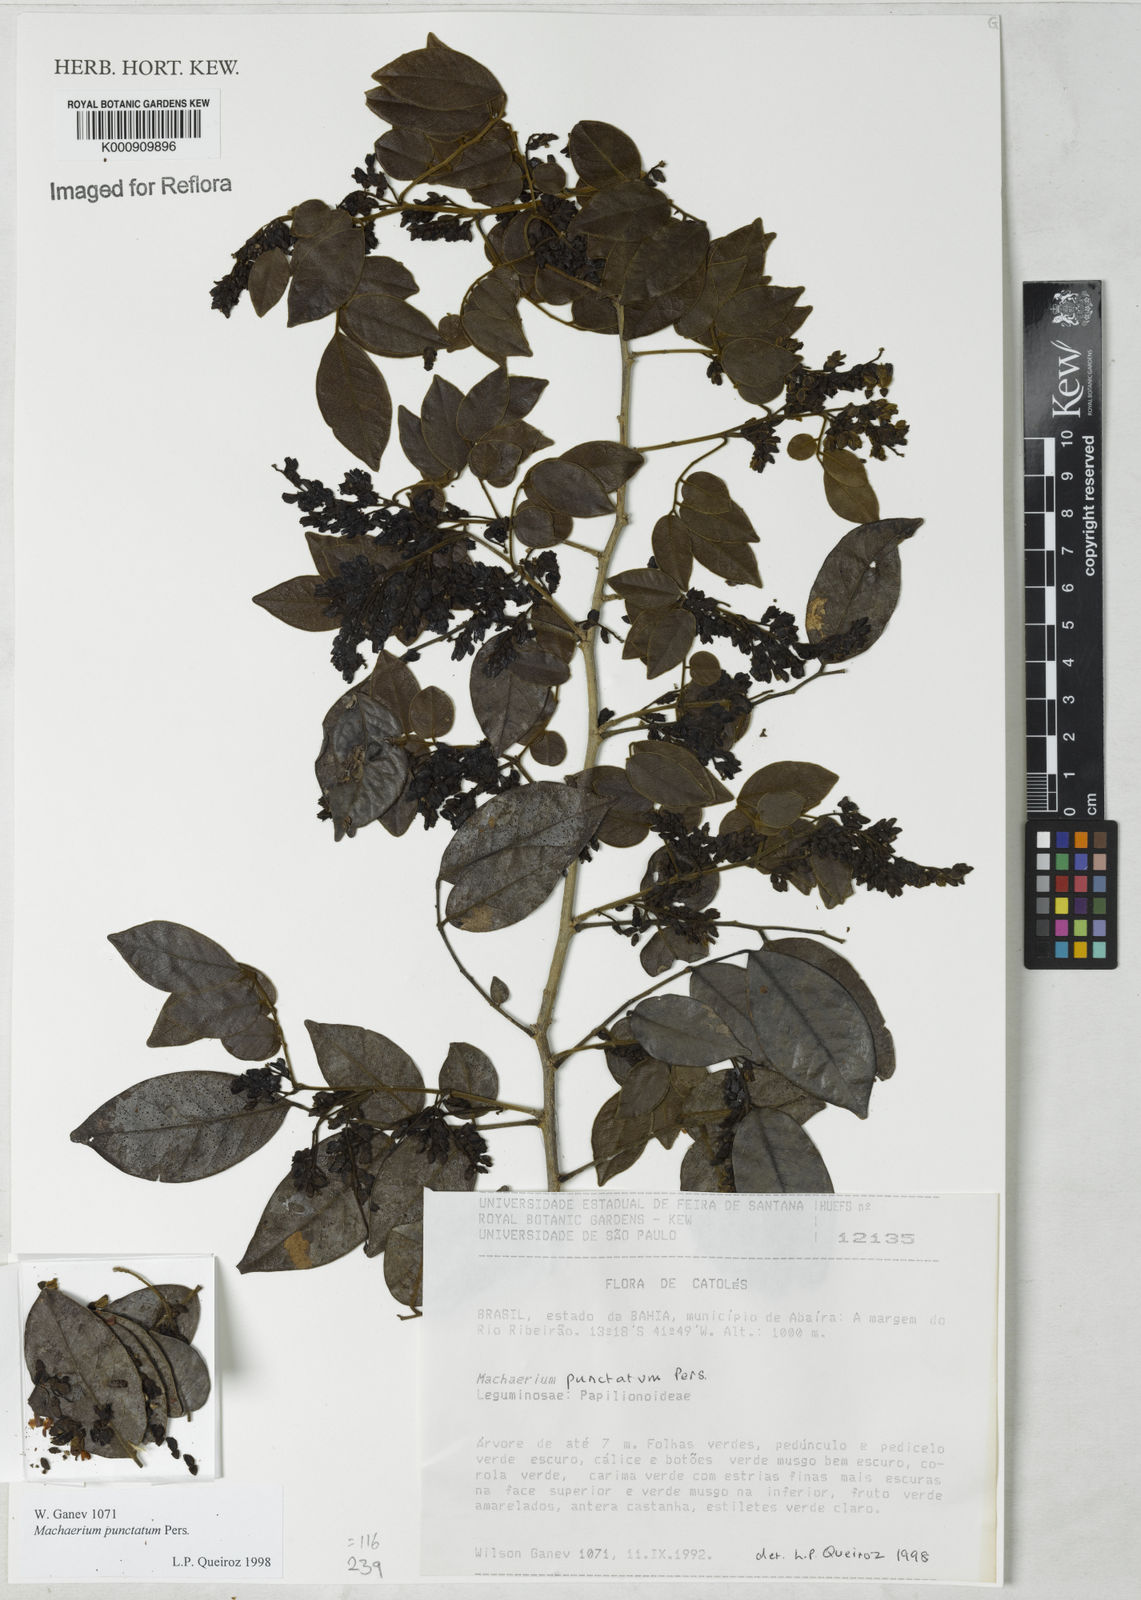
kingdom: Plantae
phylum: Tracheophyta
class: Magnoliopsida
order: Fabales
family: Fabaceae
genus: Machaerium
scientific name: Machaerium punctatum
